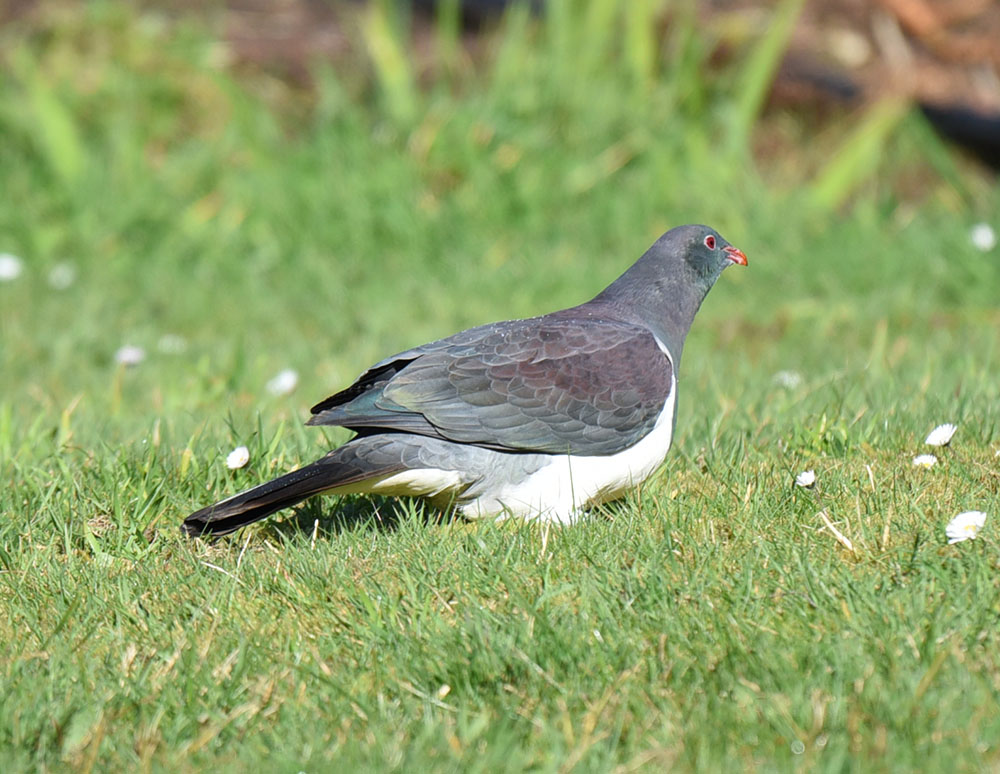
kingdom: Animalia
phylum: Chordata
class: Aves
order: Columbiformes
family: Columbidae
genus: Hemiphaga
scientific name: Hemiphaga novaeseelandiae
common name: New zealand pigeon
